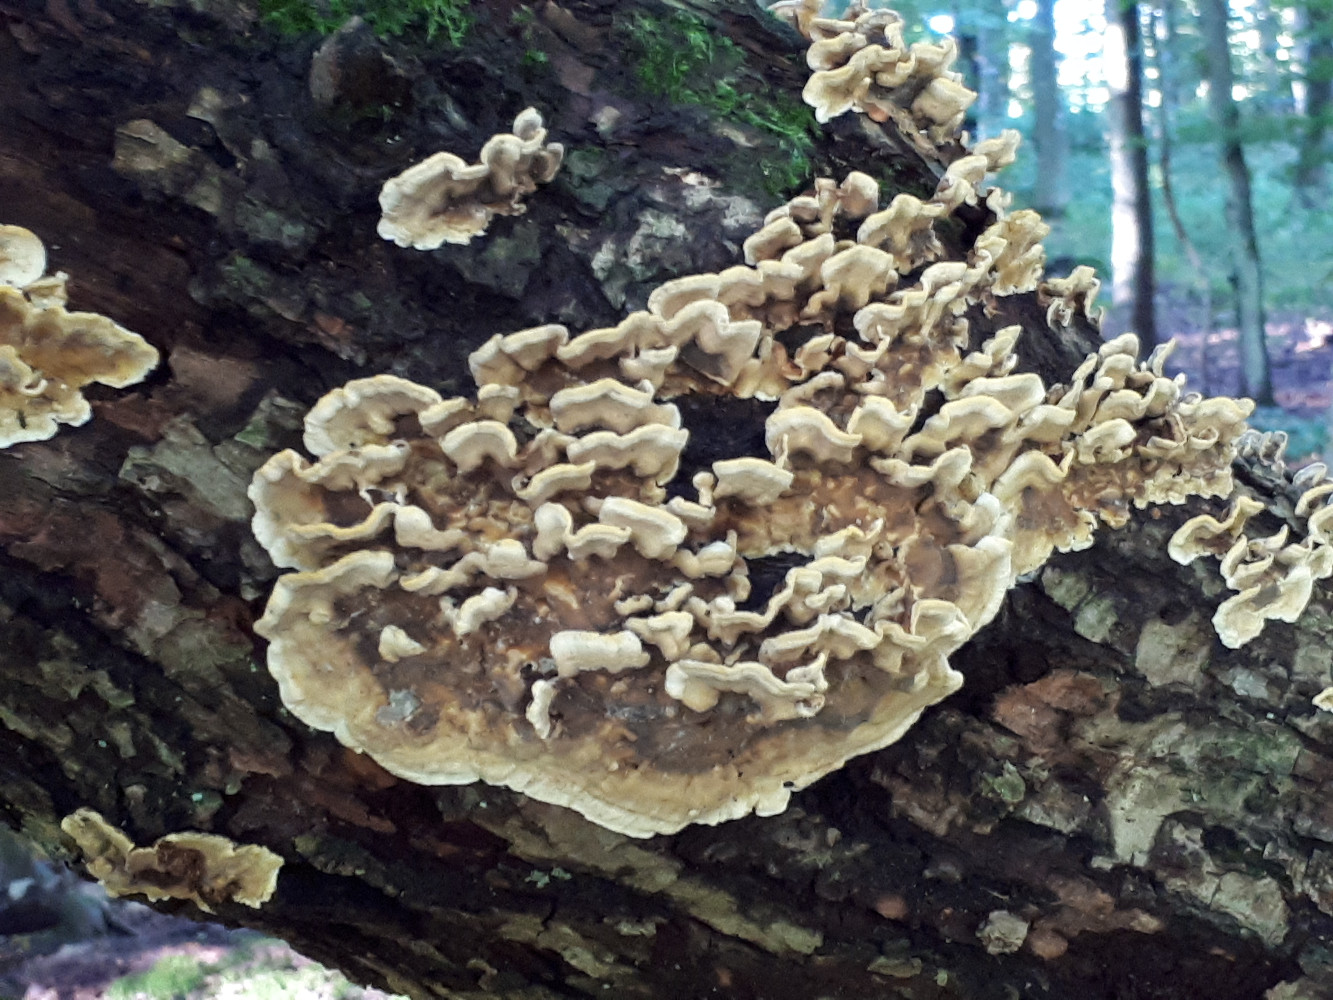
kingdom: Fungi
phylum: Basidiomycota
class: Agaricomycetes
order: Russulales
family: Stereaceae
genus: Stereum
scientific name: Stereum hirsutum
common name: håret lædersvamp
